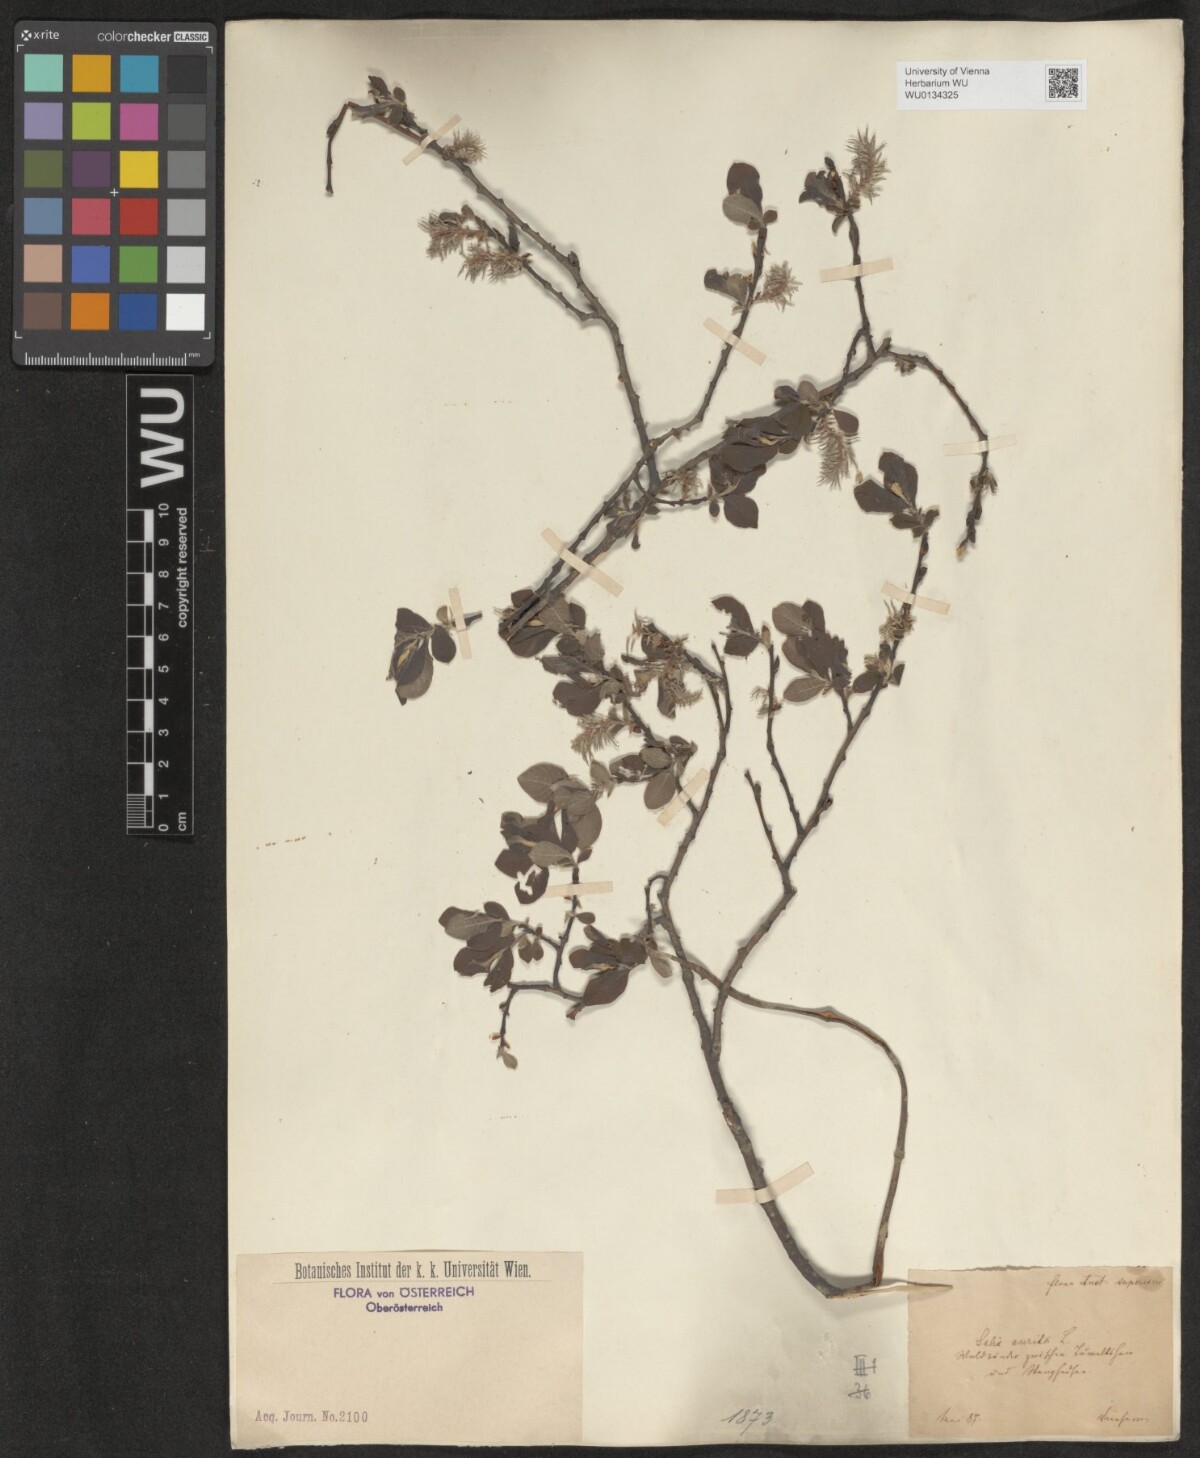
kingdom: Plantae
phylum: Tracheophyta
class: Magnoliopsida
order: Malpighiales
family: Salicaceae
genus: Salix
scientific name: Salix aurita
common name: Eared willow
